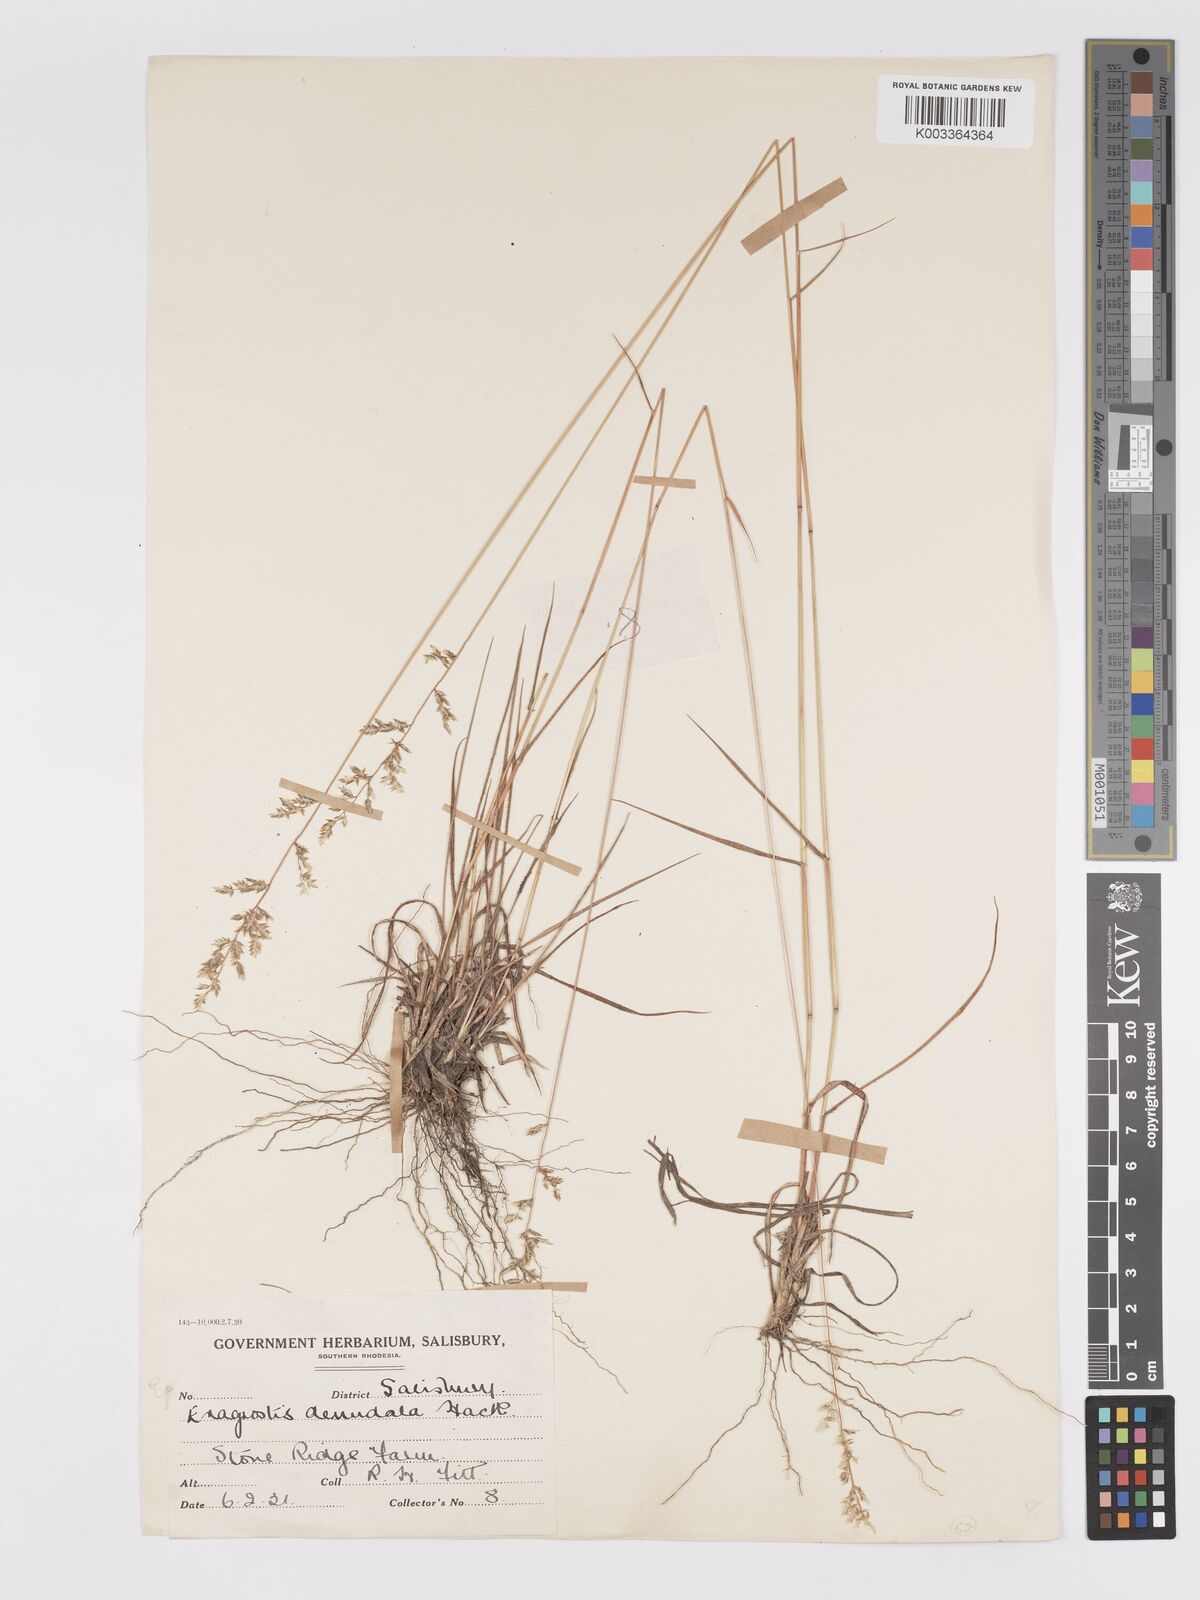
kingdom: Plantae
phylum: Tracheophyta
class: Liliopsida
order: Poales
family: Poaceae
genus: Eragrostis
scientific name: Eragrostis racemosa
